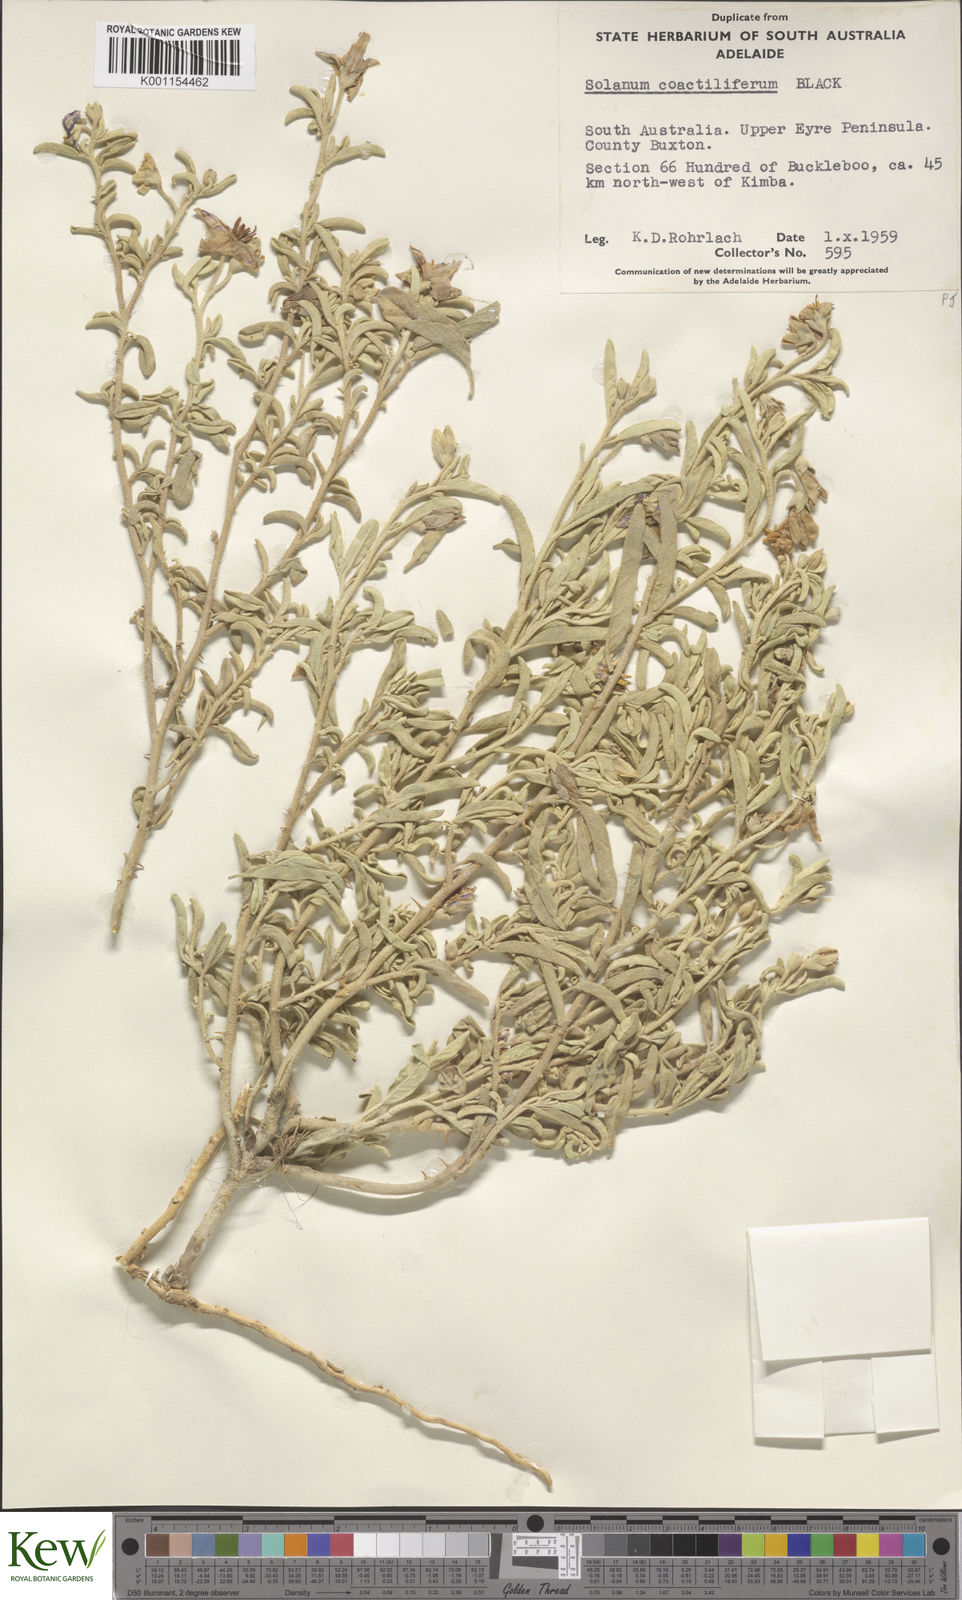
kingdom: Plantae
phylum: Tracheophyta
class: Magnoliopsida
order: Solanales
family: Solanaceae
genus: Solanum
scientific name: Solanum coactiliferum
